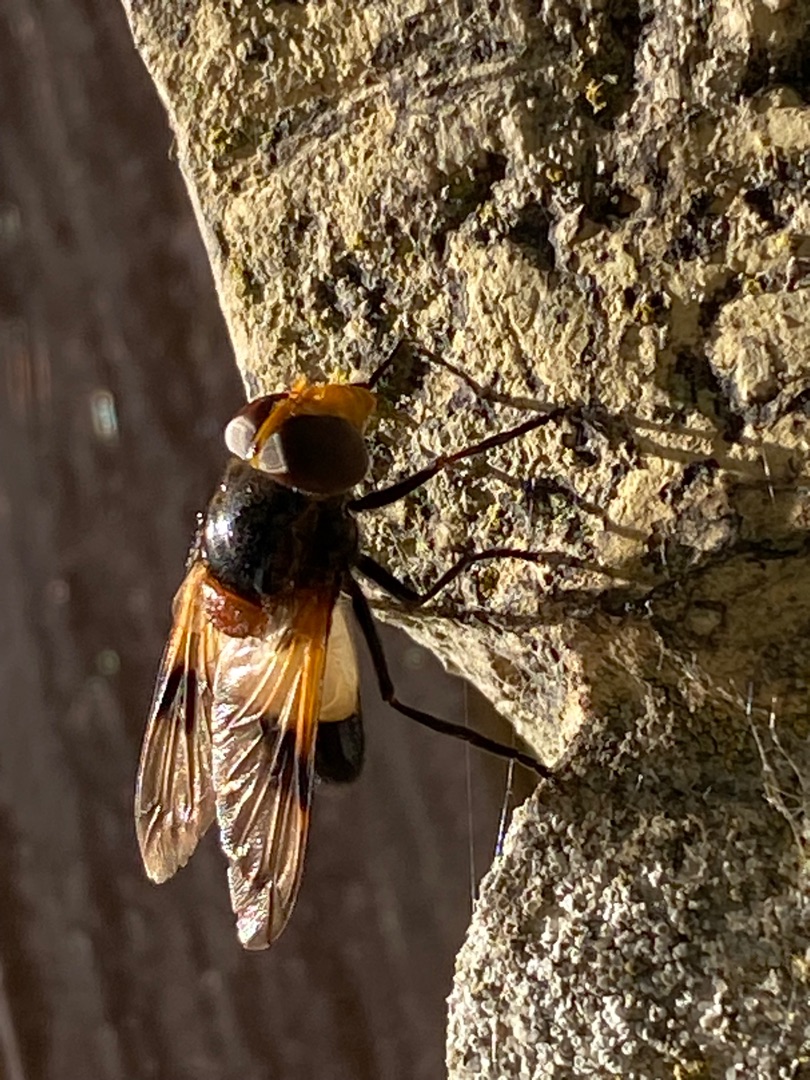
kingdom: Animalia
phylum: Arthropoda
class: Insecta
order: Diptera
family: Syrphidae
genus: Volucella
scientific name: Volucella pellucens
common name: Hvidbåndet humlesvirreflue
